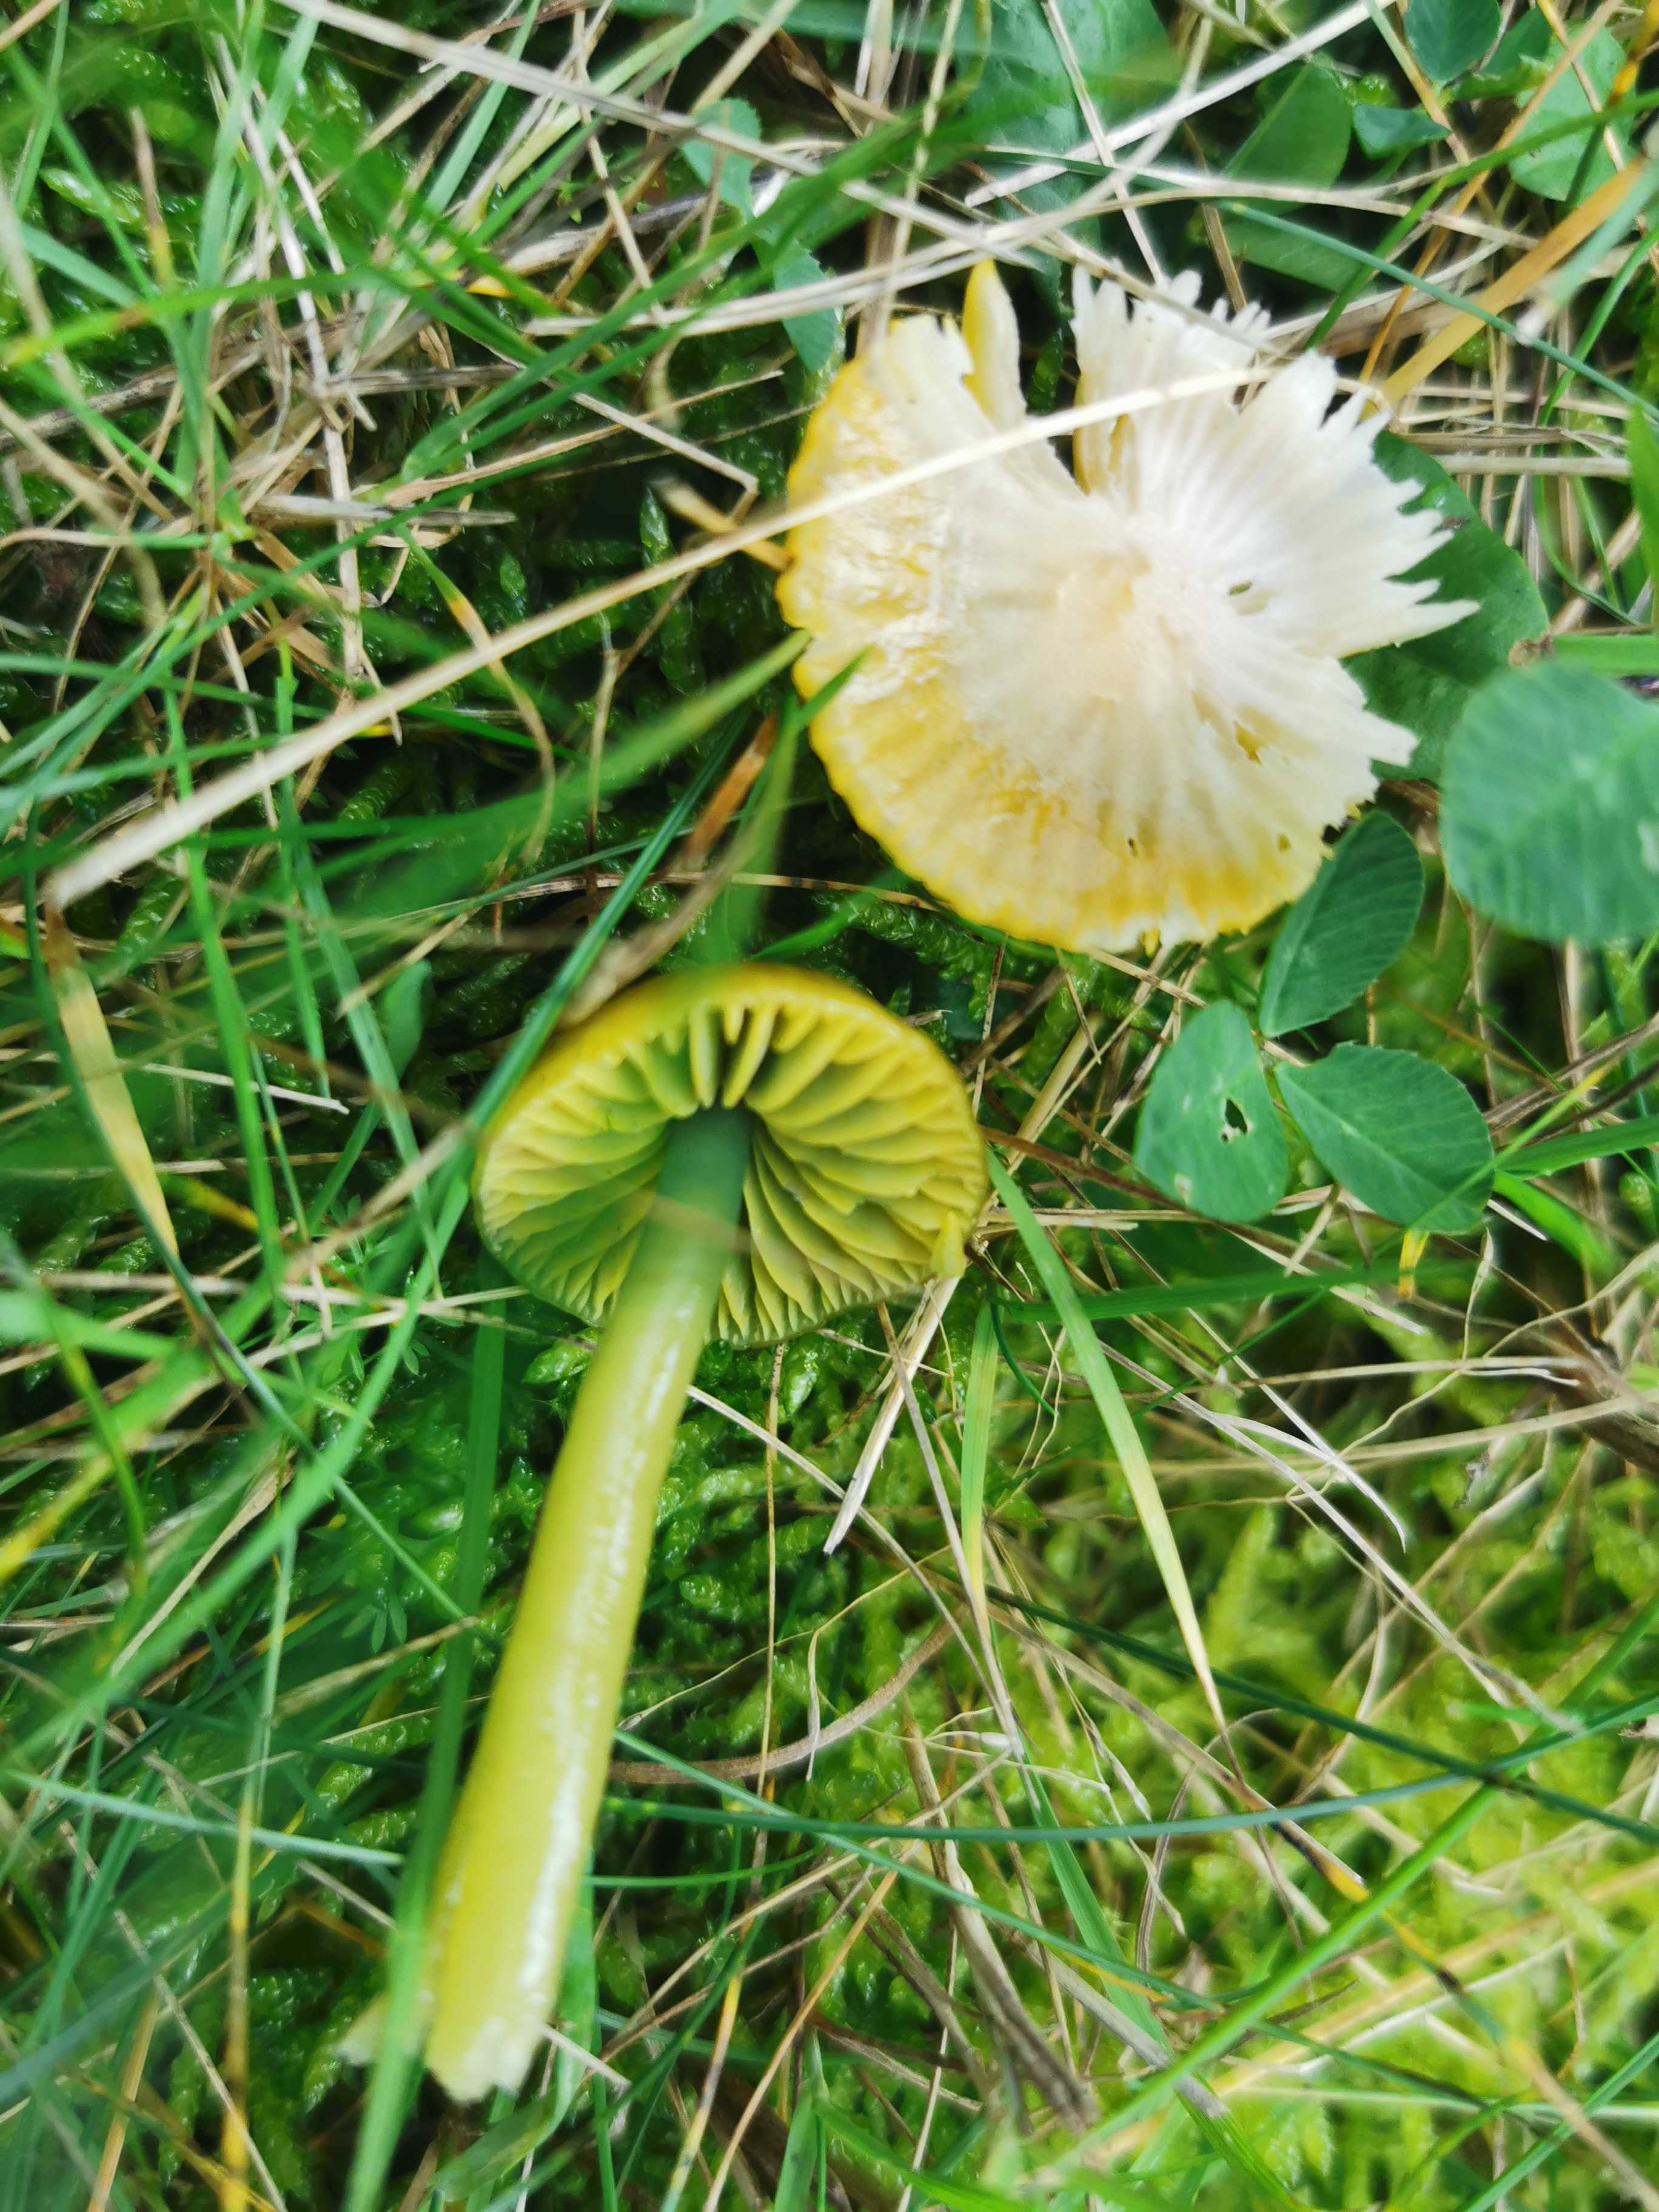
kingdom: Fungi
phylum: Basidiomycota
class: Agaricomycetes
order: Agaricales
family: Hygrophoraceae
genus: Gliophorus
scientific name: Gliophorus psittacinus
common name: papegøje-vokshat
